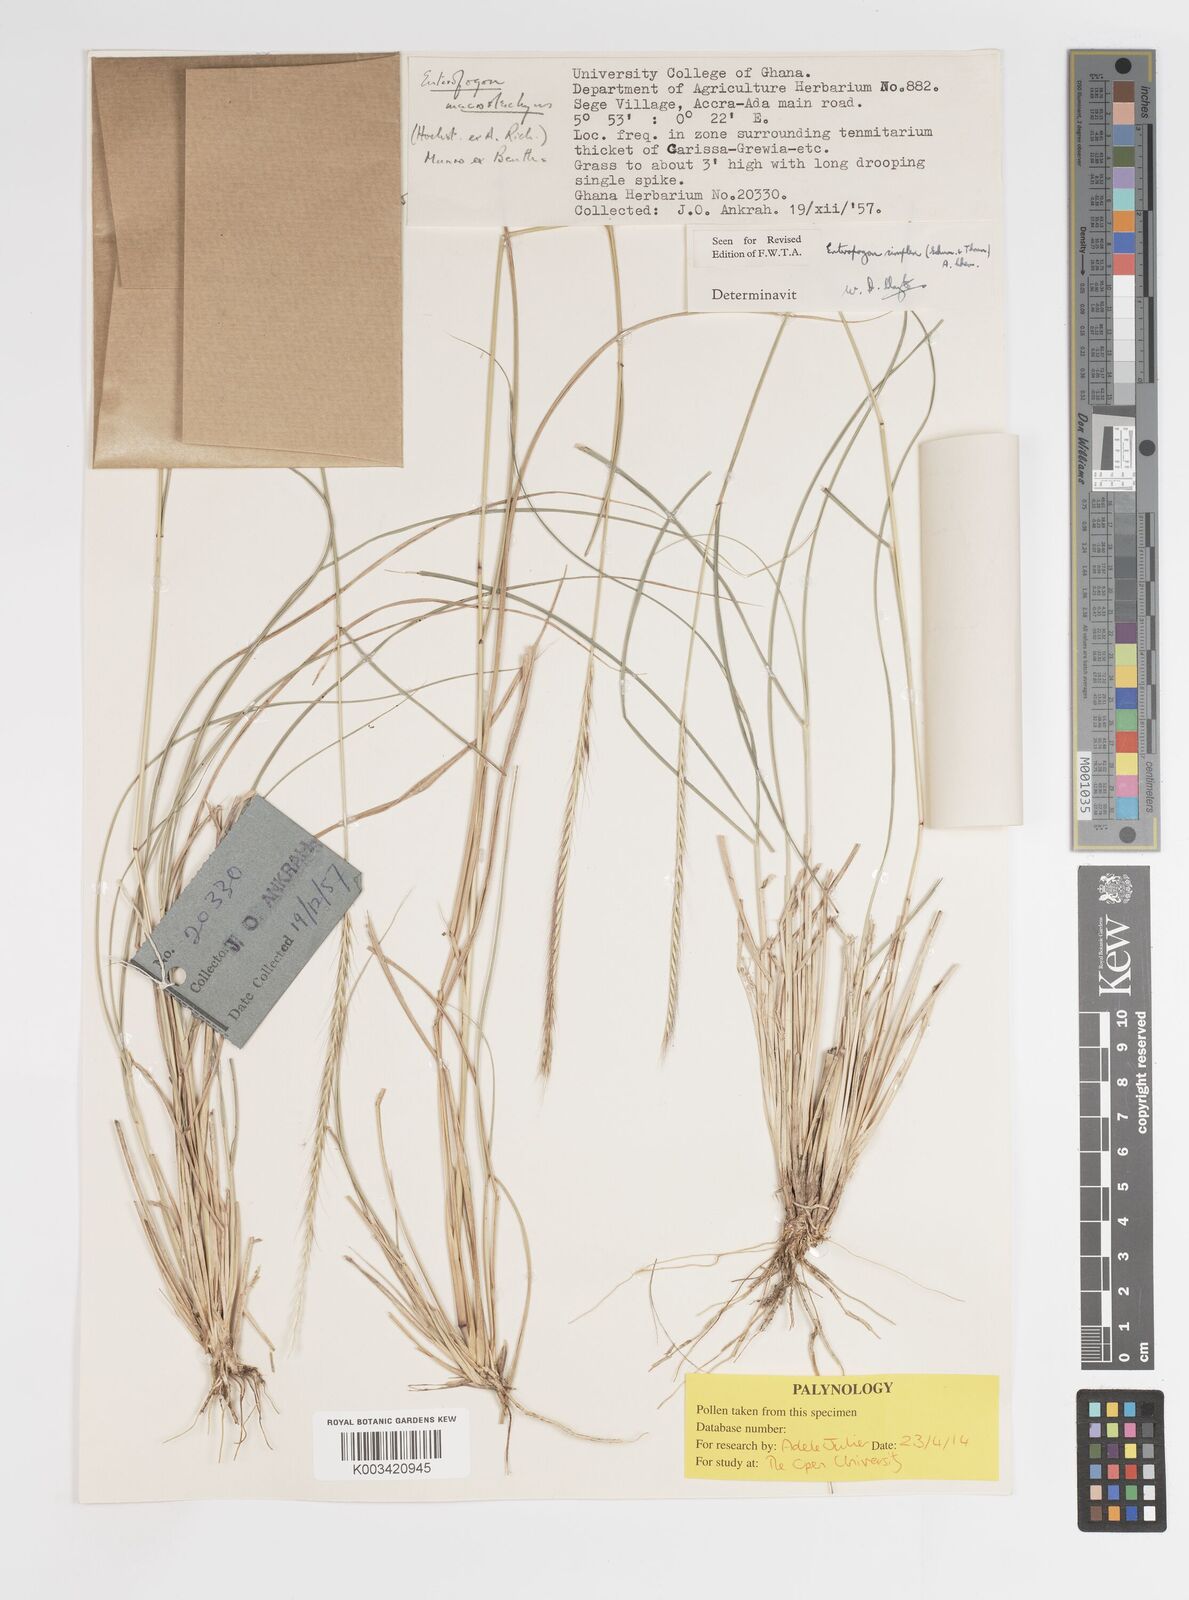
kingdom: Plantae
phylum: Tracheophyta
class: Liliopsida
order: Poales
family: Poaceae
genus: Enteropogon
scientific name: Enteropogon macrostachyus
